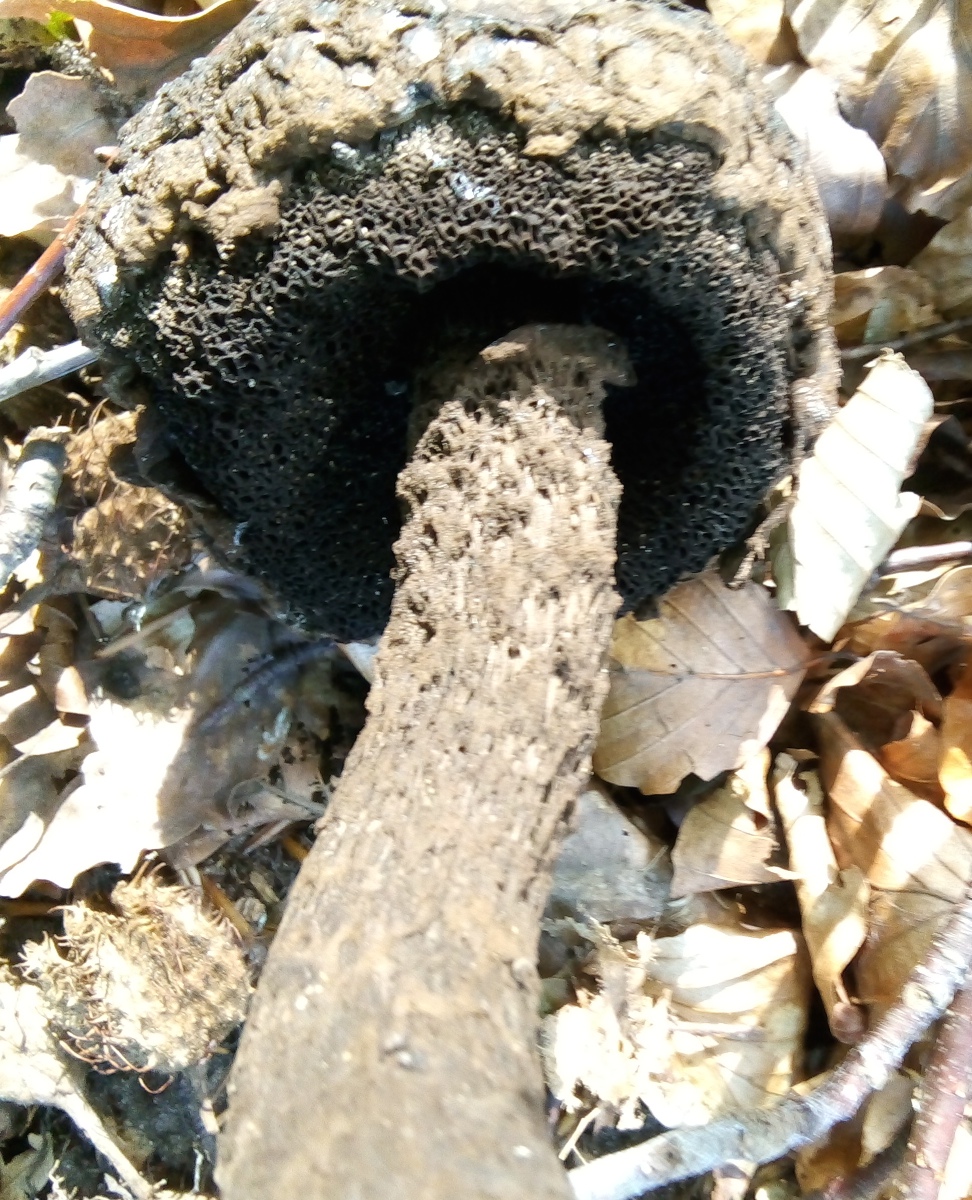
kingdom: Fungi
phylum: Basidiomycota
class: Agaricomycetes
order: Boletales
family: Boletaceae
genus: Strobilomyces
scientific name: Strobilomyces strobilaceus
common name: koglerørhat
